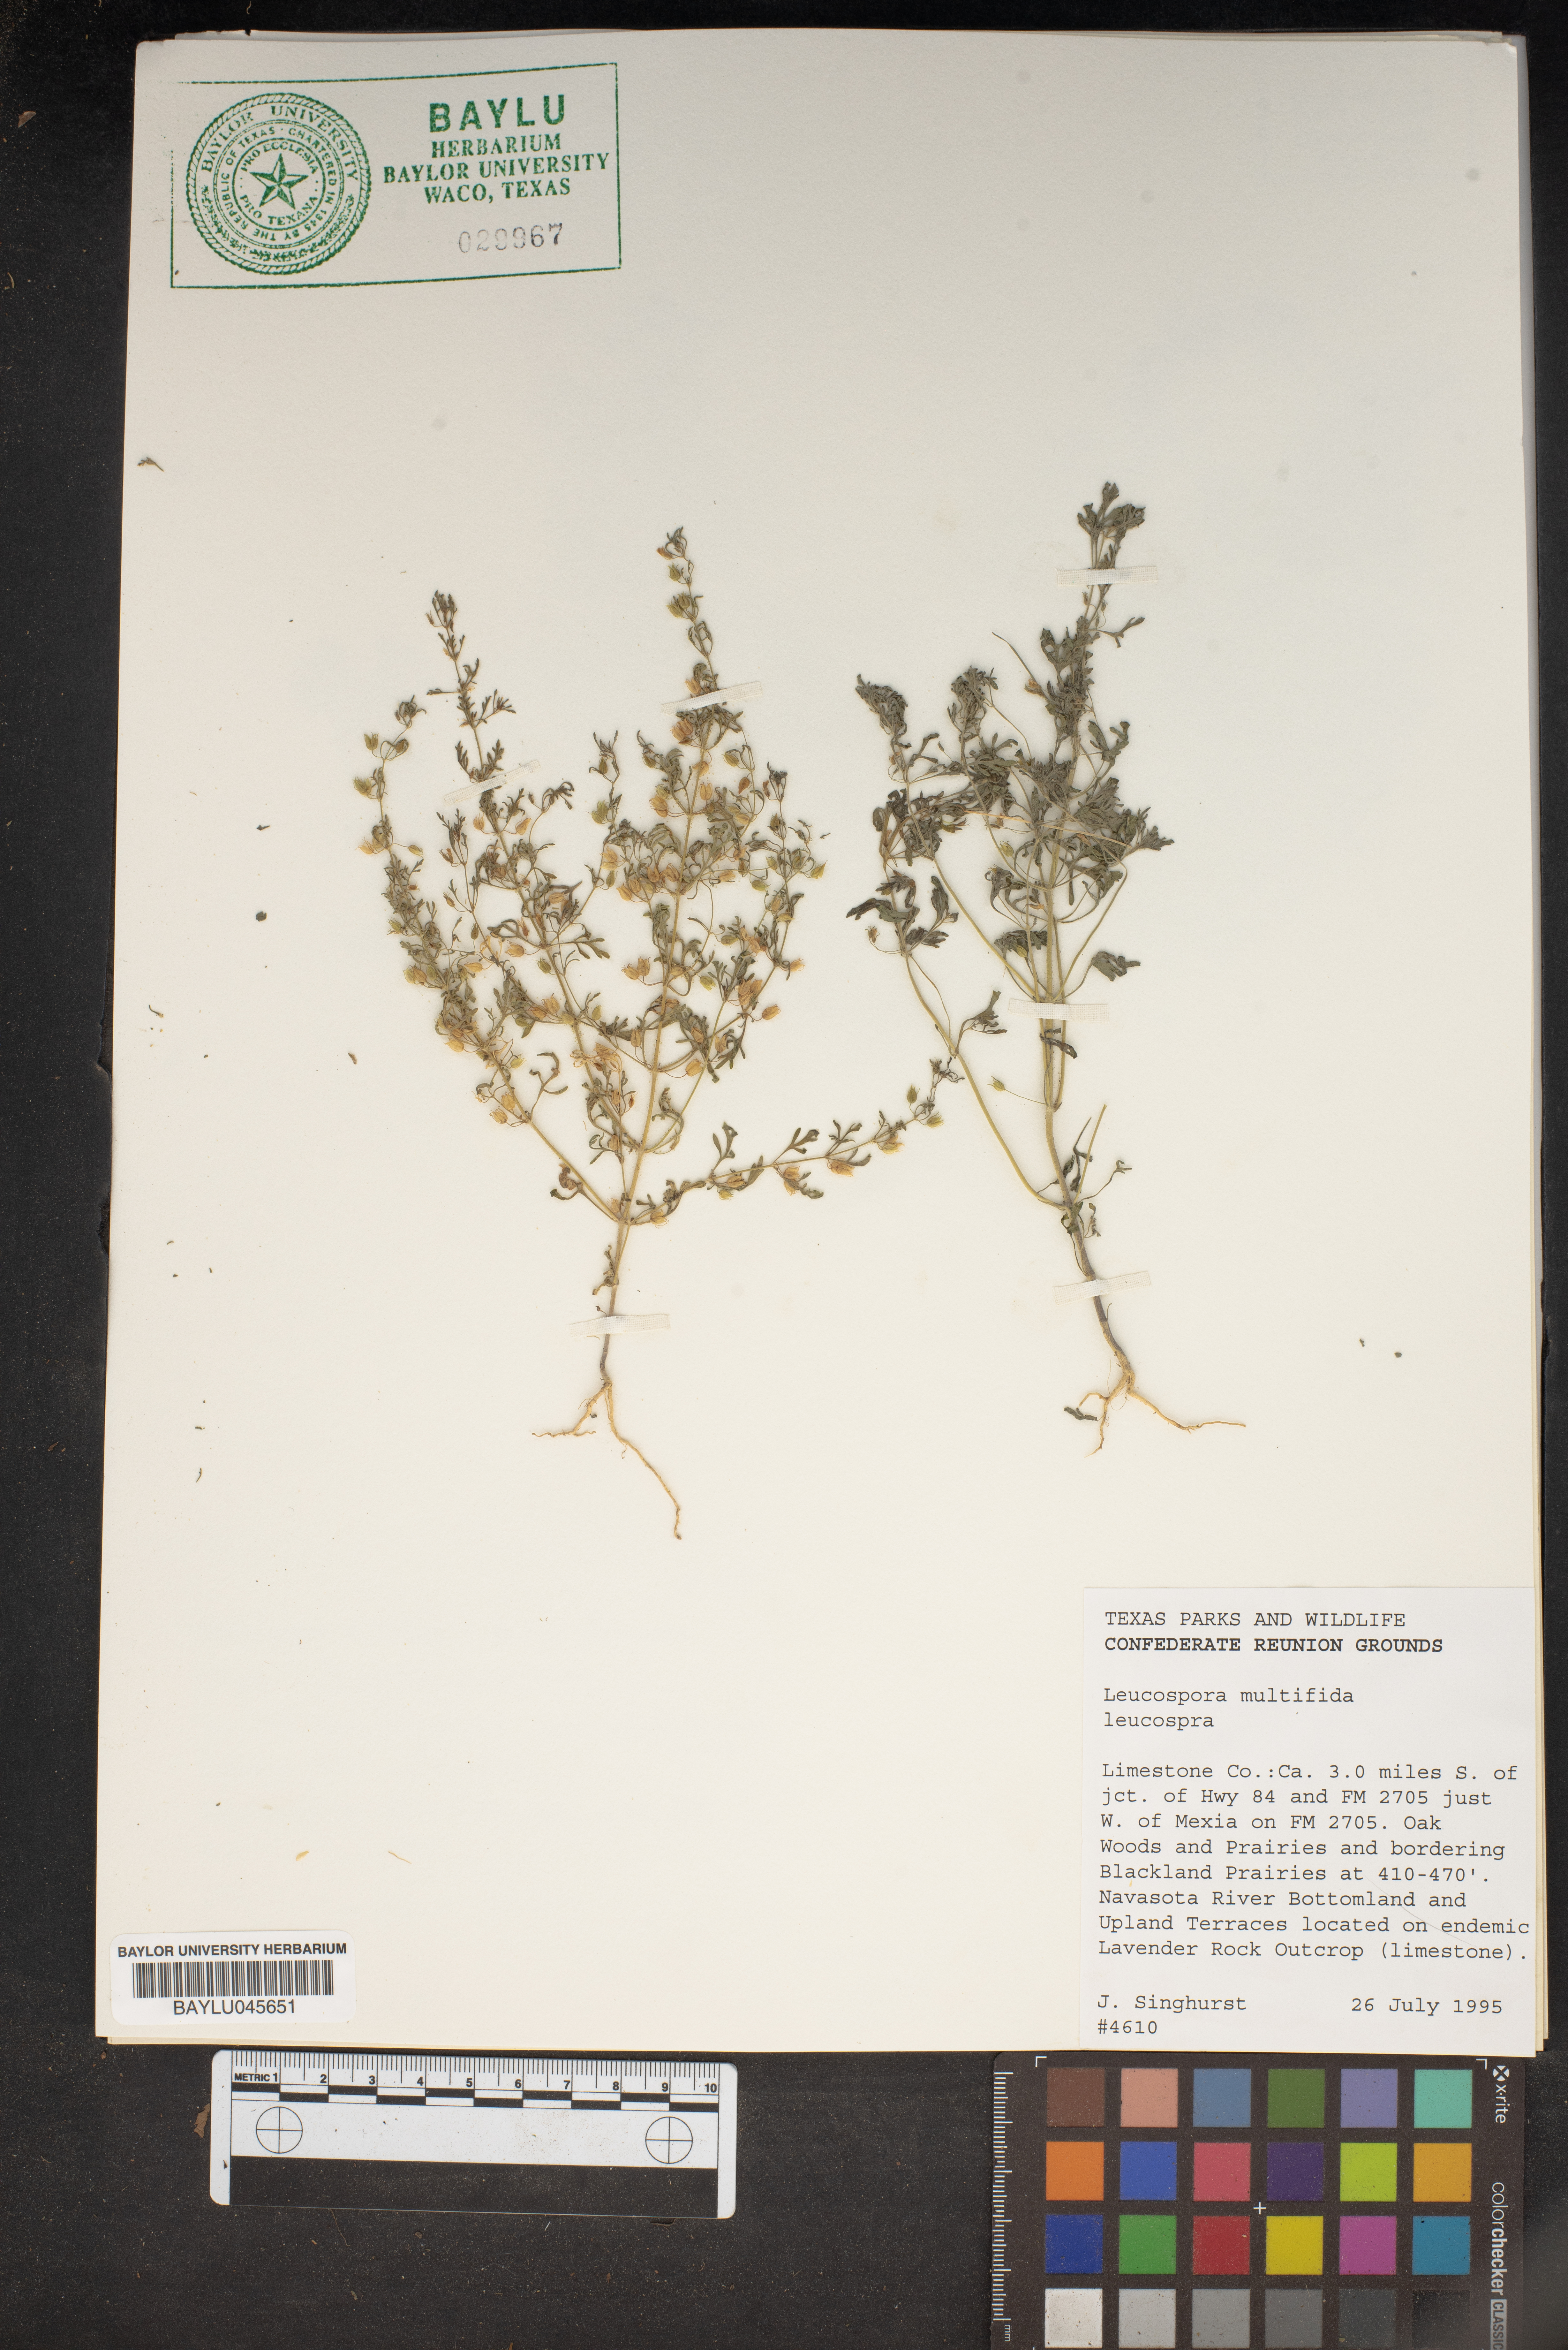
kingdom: Plantae
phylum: Tracheophyta
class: Magnoliopsida
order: Lamiales
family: Plantaginaceae
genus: Leucospora
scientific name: Leucospora multifida
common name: Narrow-leaf paleseed
